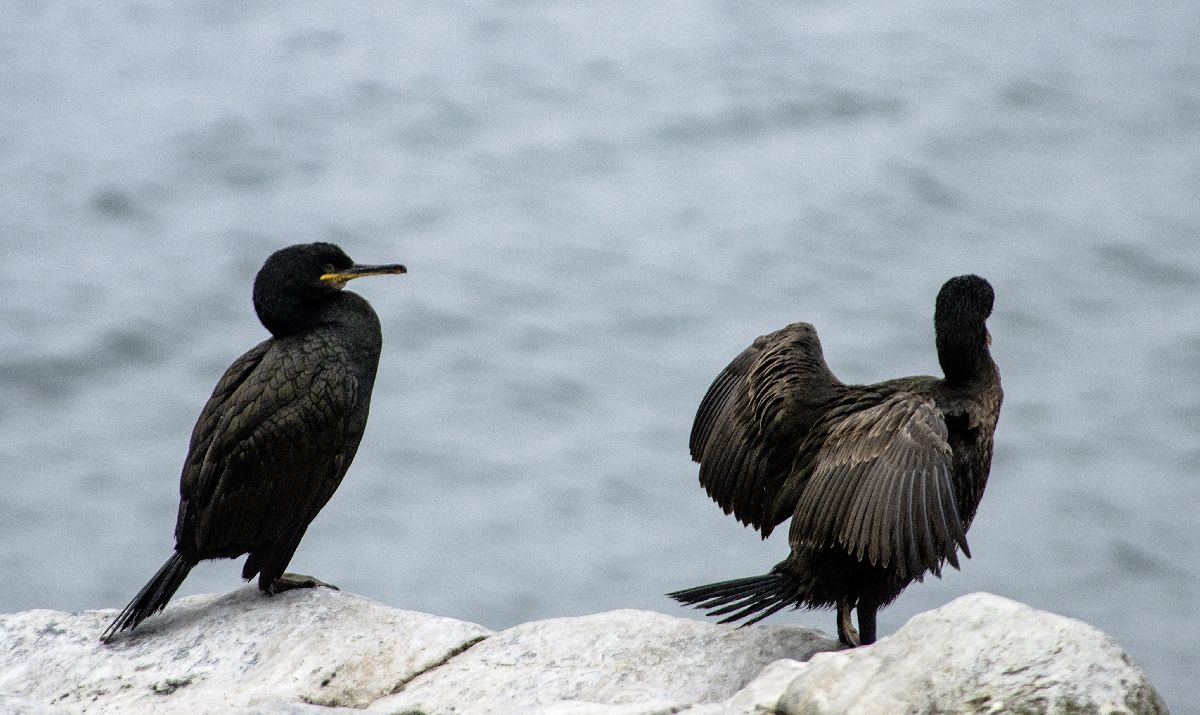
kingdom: Animalia
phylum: Chordata
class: Aves
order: Suliformes
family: Phalacrocoracidae
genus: Phalacrocorax
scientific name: Phalacrocorax aristotelis
